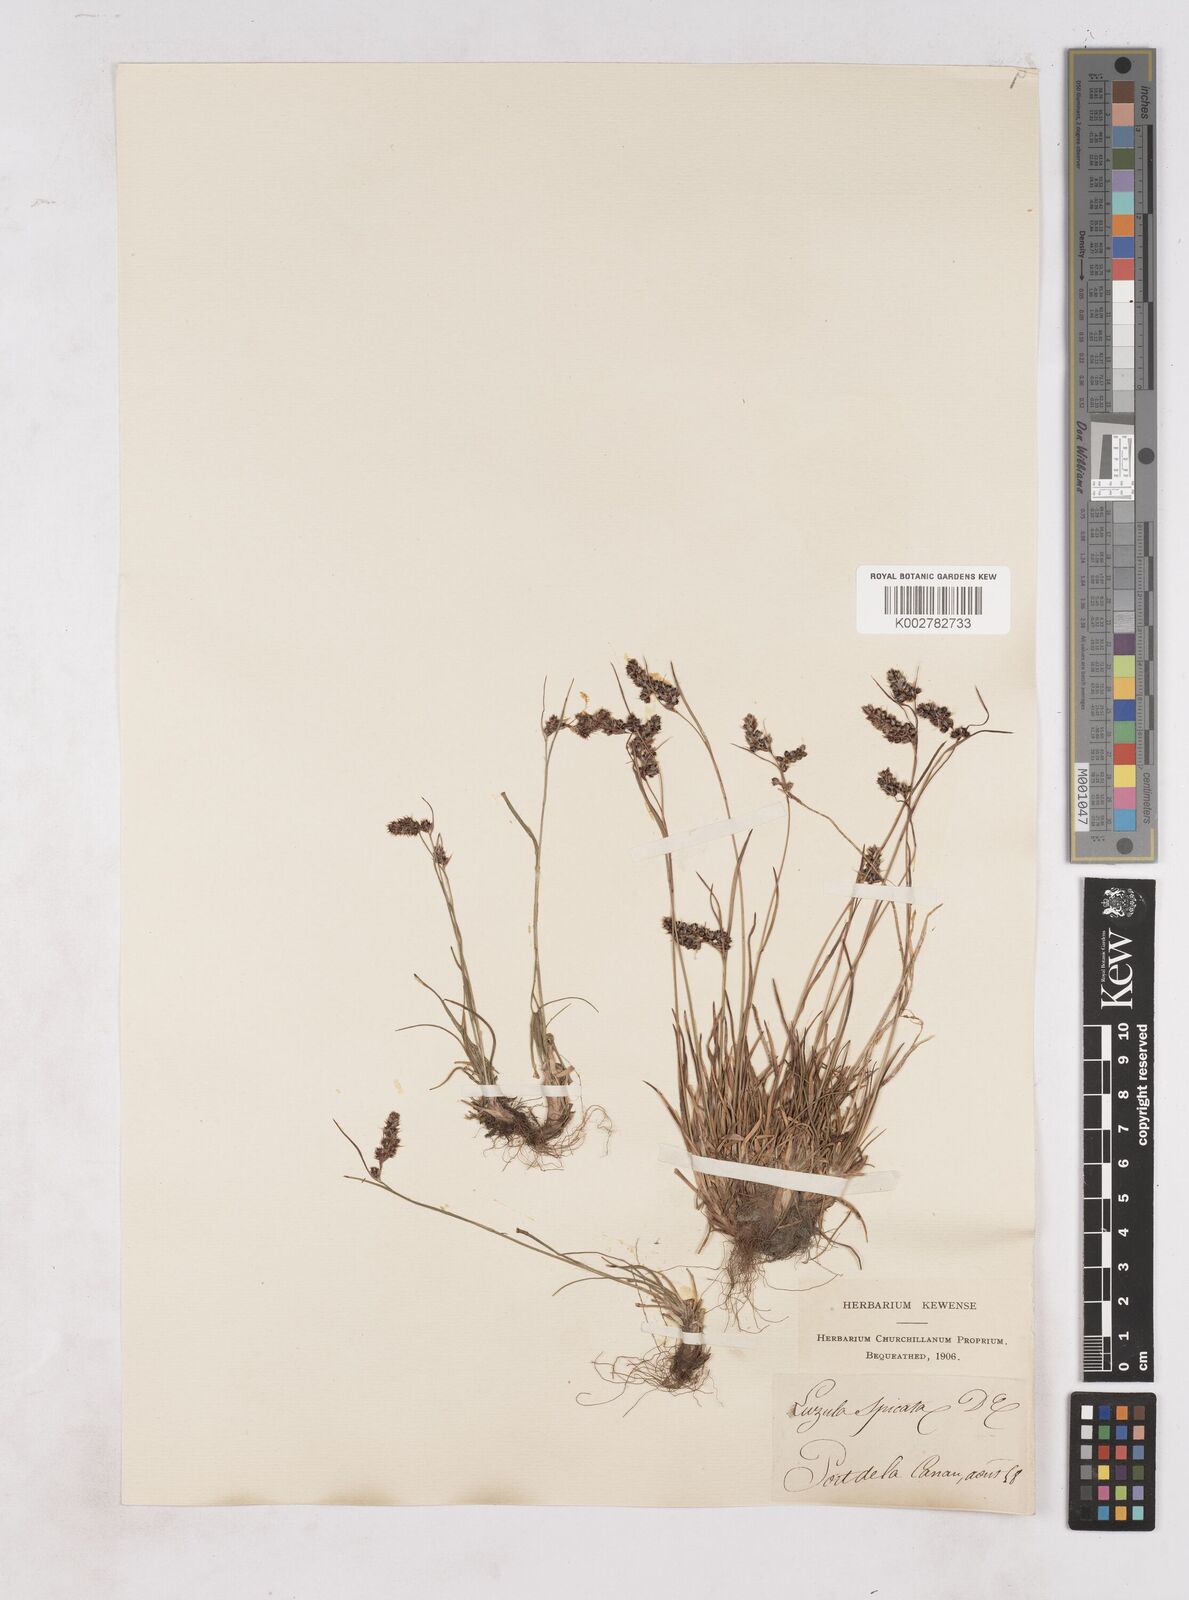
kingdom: Plantae
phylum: Tracheophyta
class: Liliopsida
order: Poales
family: Juncaceae
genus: Luzula
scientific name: Luzula spicata
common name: Spiked wood-rush
